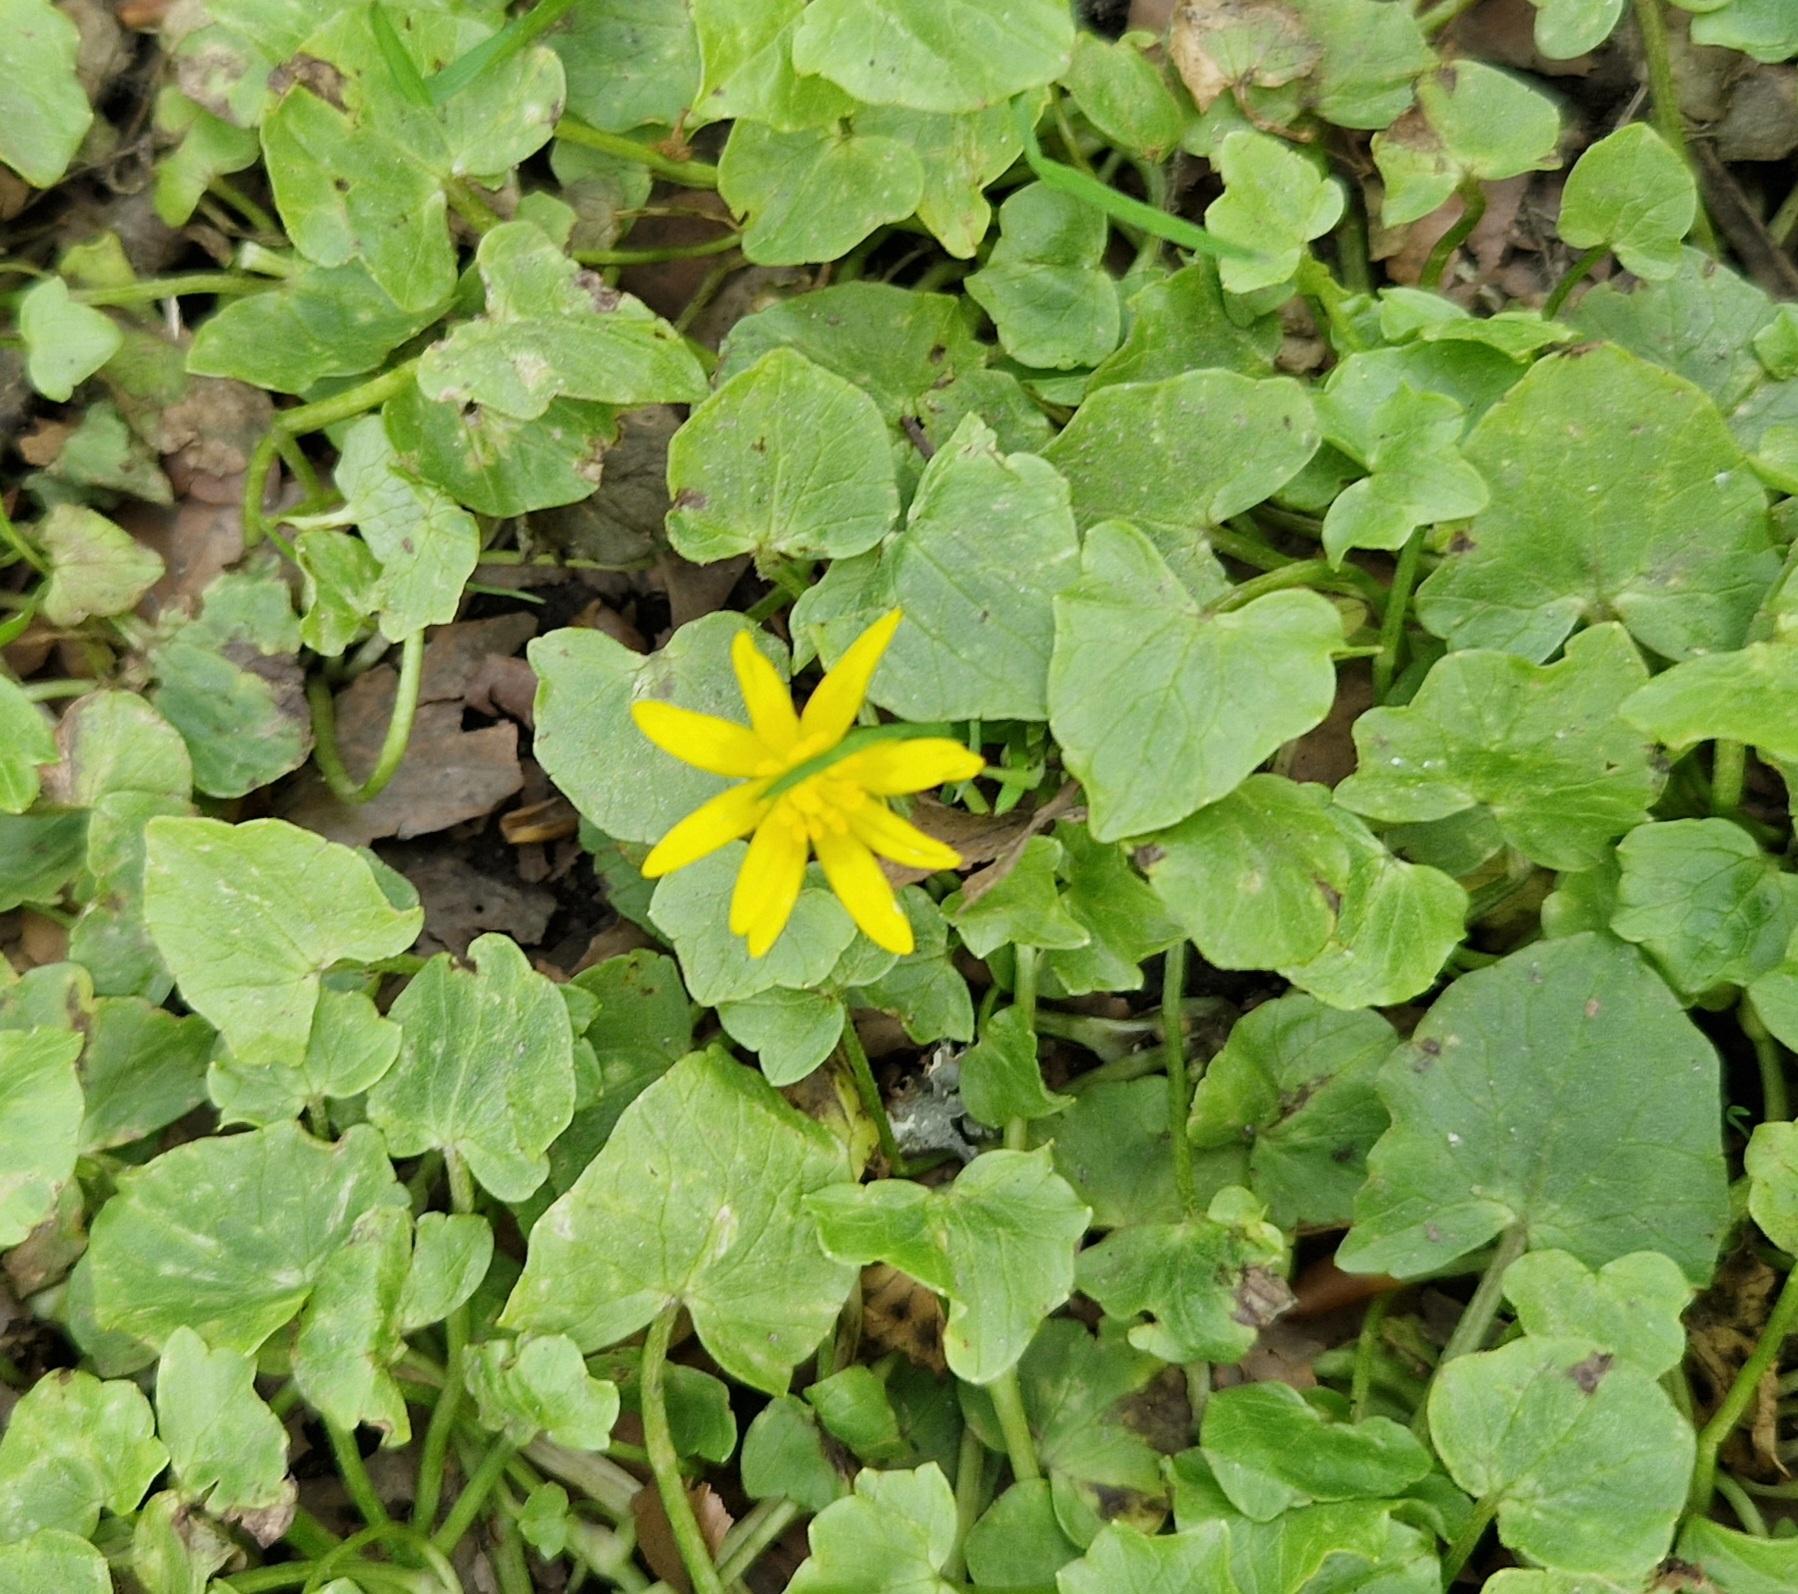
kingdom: Plantae
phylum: Tracheophyta
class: Magnoliopsida
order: Ranunculales
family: Ranunculaceae
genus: Ficaria
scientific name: Ficaria verna
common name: Vorterod
